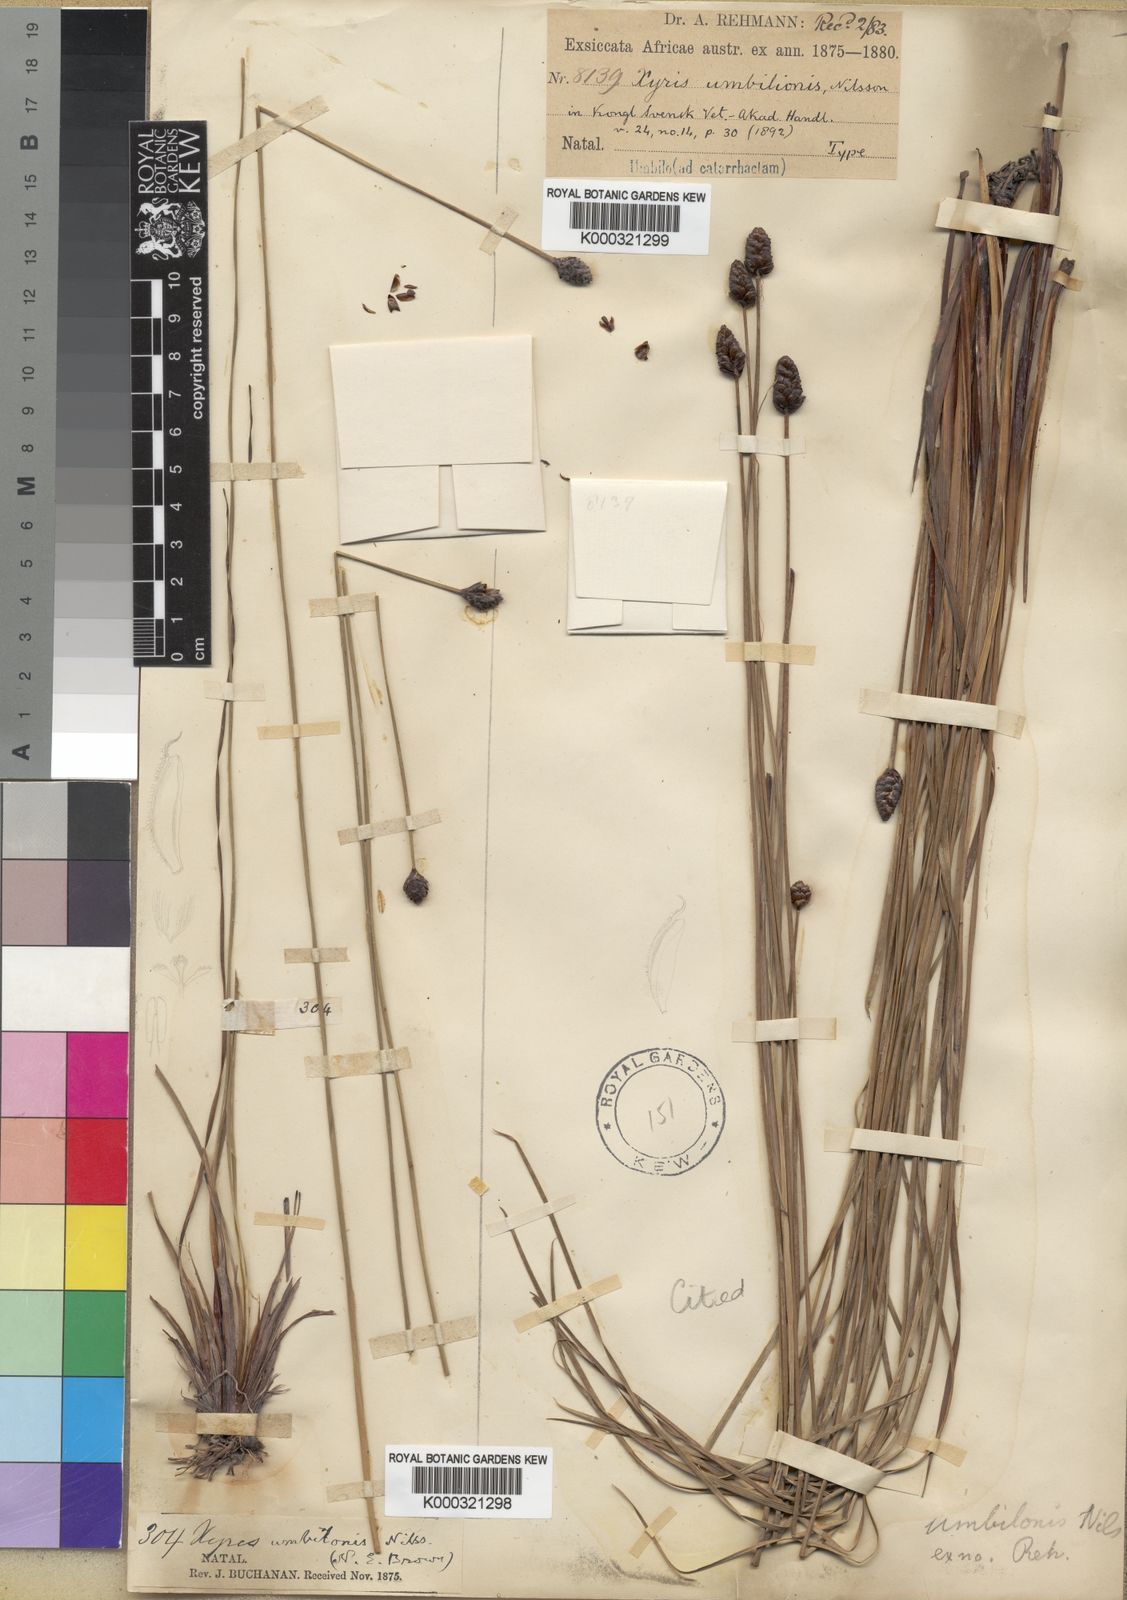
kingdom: Plantae
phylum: Tracheophyta
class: Liliopsida
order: Poales
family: Xyridaceae
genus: Xyris
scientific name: Xyris
